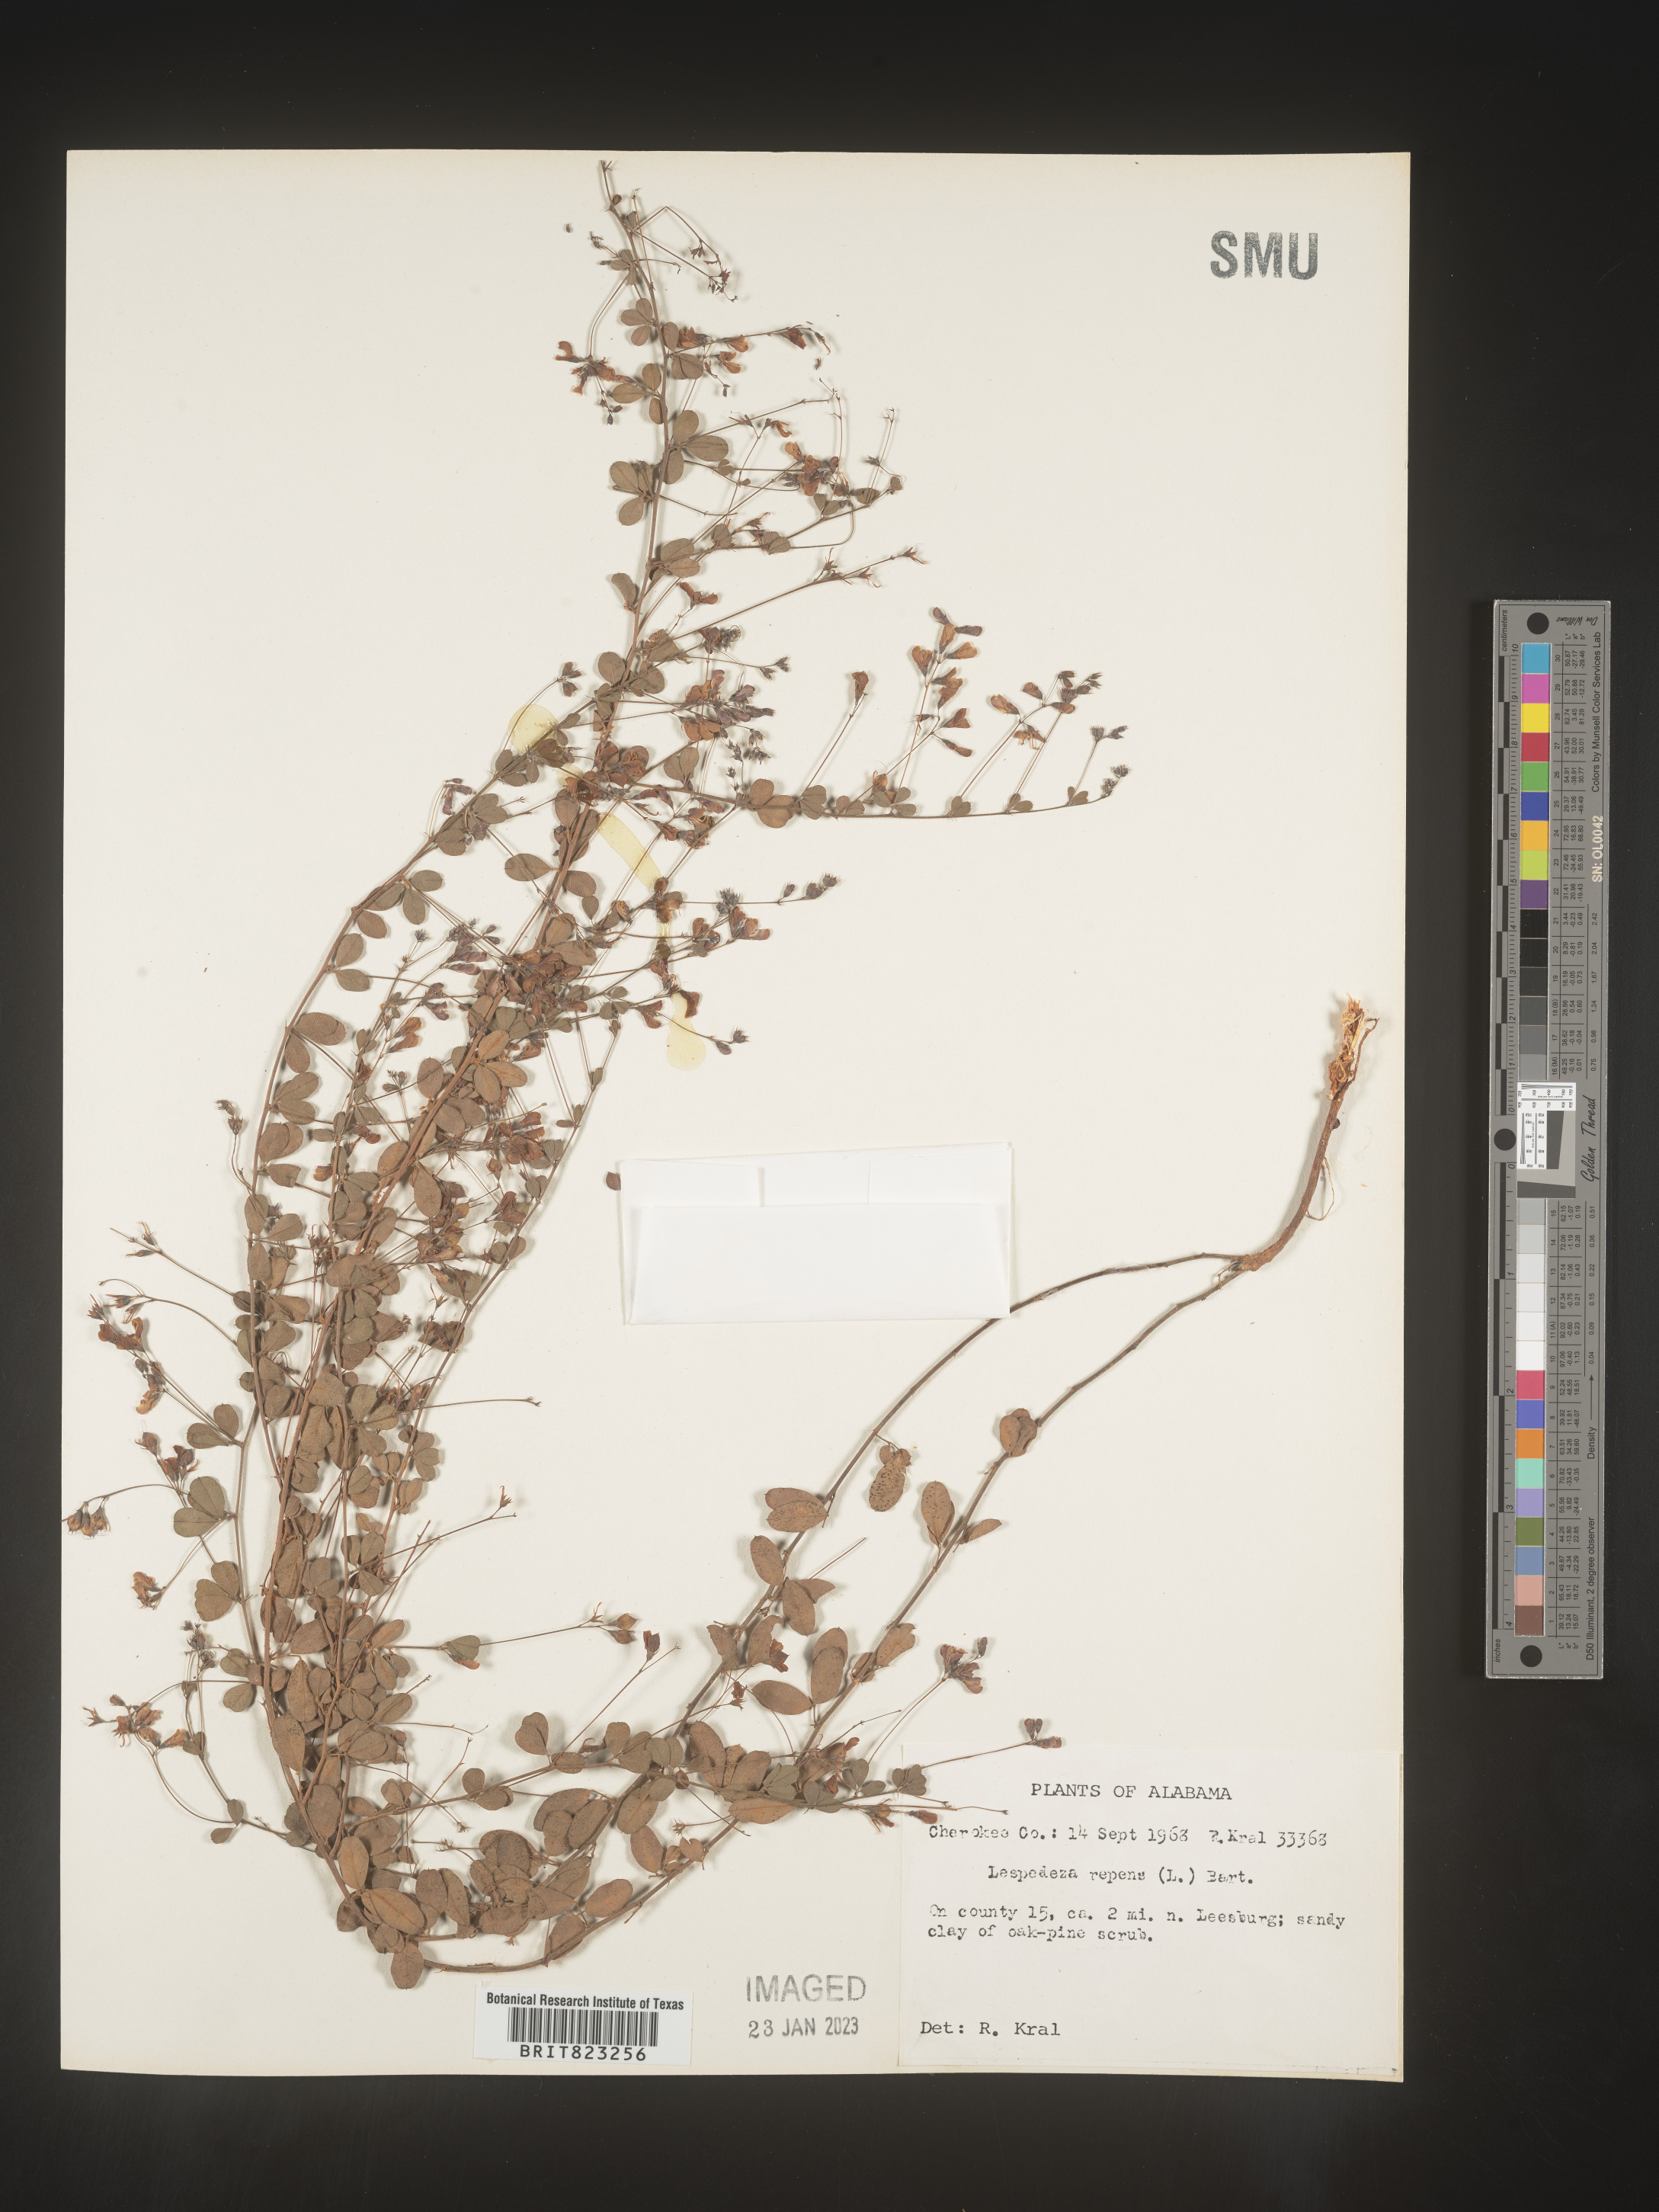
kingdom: Plantae
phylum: Tracheophyta
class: Magnoliopsida
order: Fabales
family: Fabaceae
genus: Lespedeza
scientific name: Lespedeza repens
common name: Creeping bush-clover
